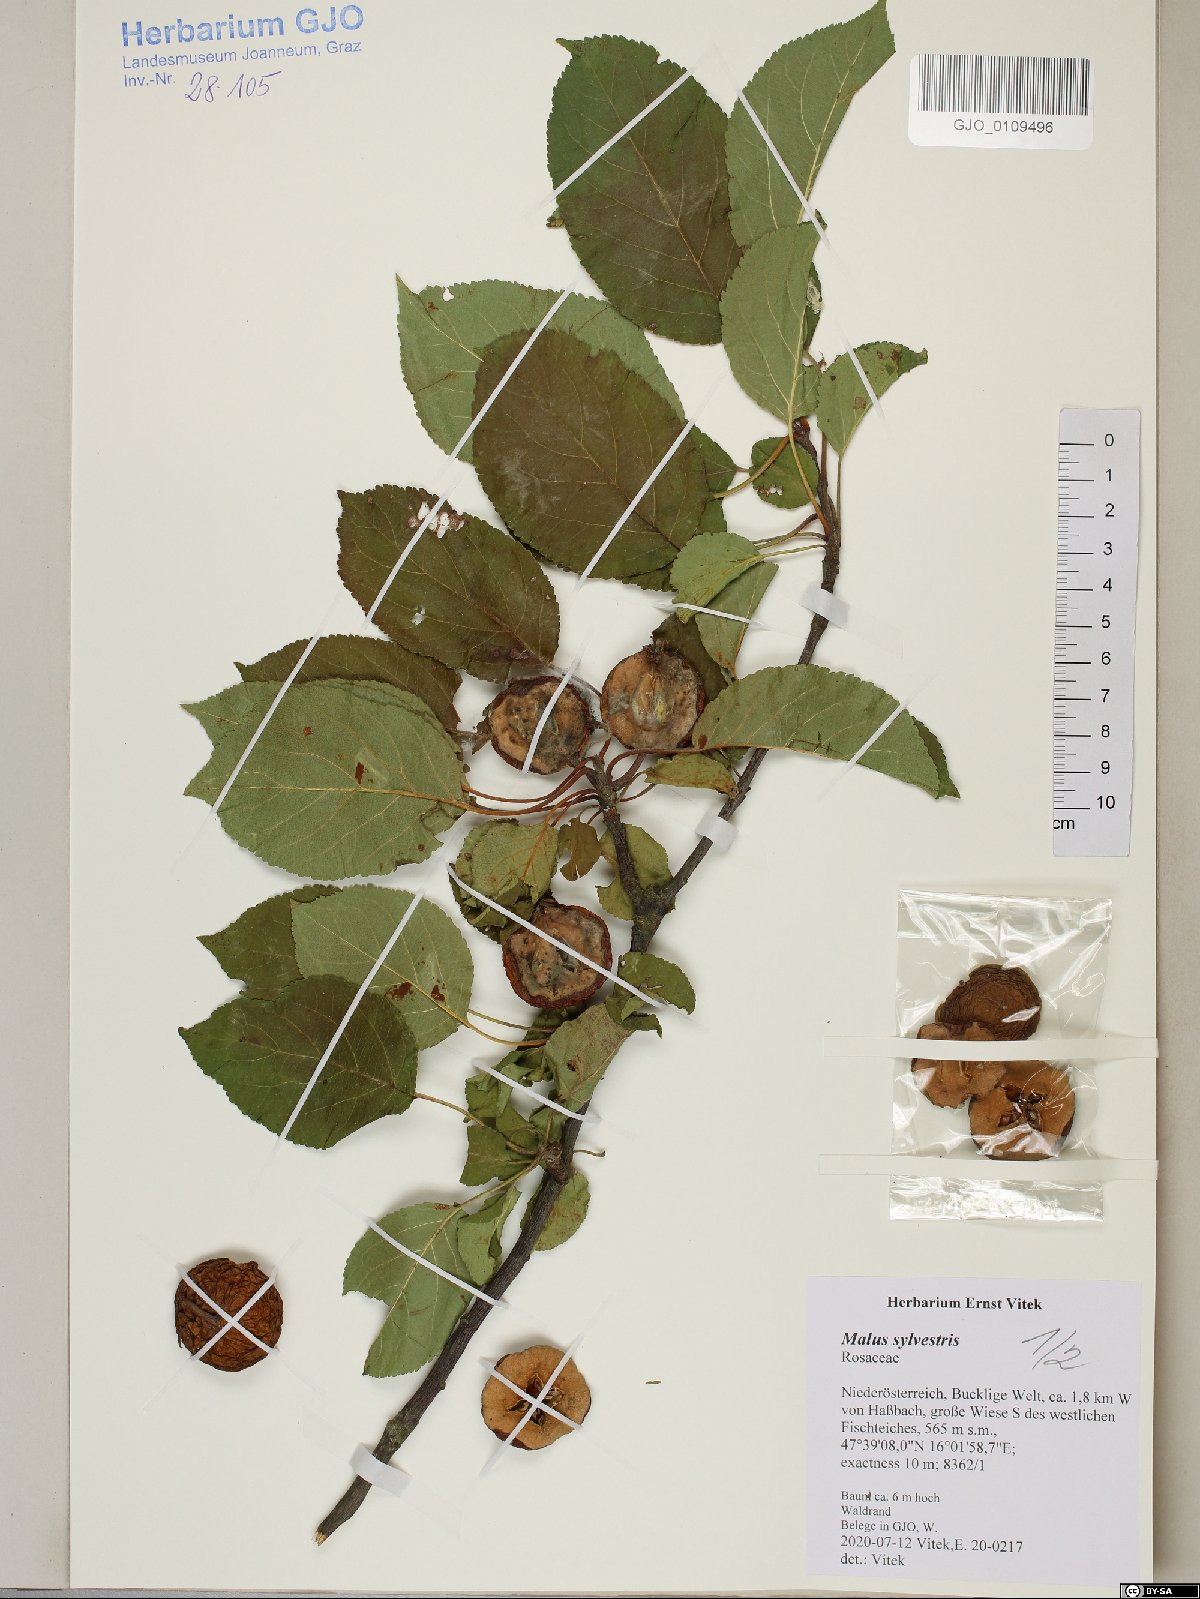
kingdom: Plantae
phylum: Tracheophyta
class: Magnoliopsida
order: Rosales
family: Rosaceae
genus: Malus
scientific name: Malus sylvestris
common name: Crab apple
